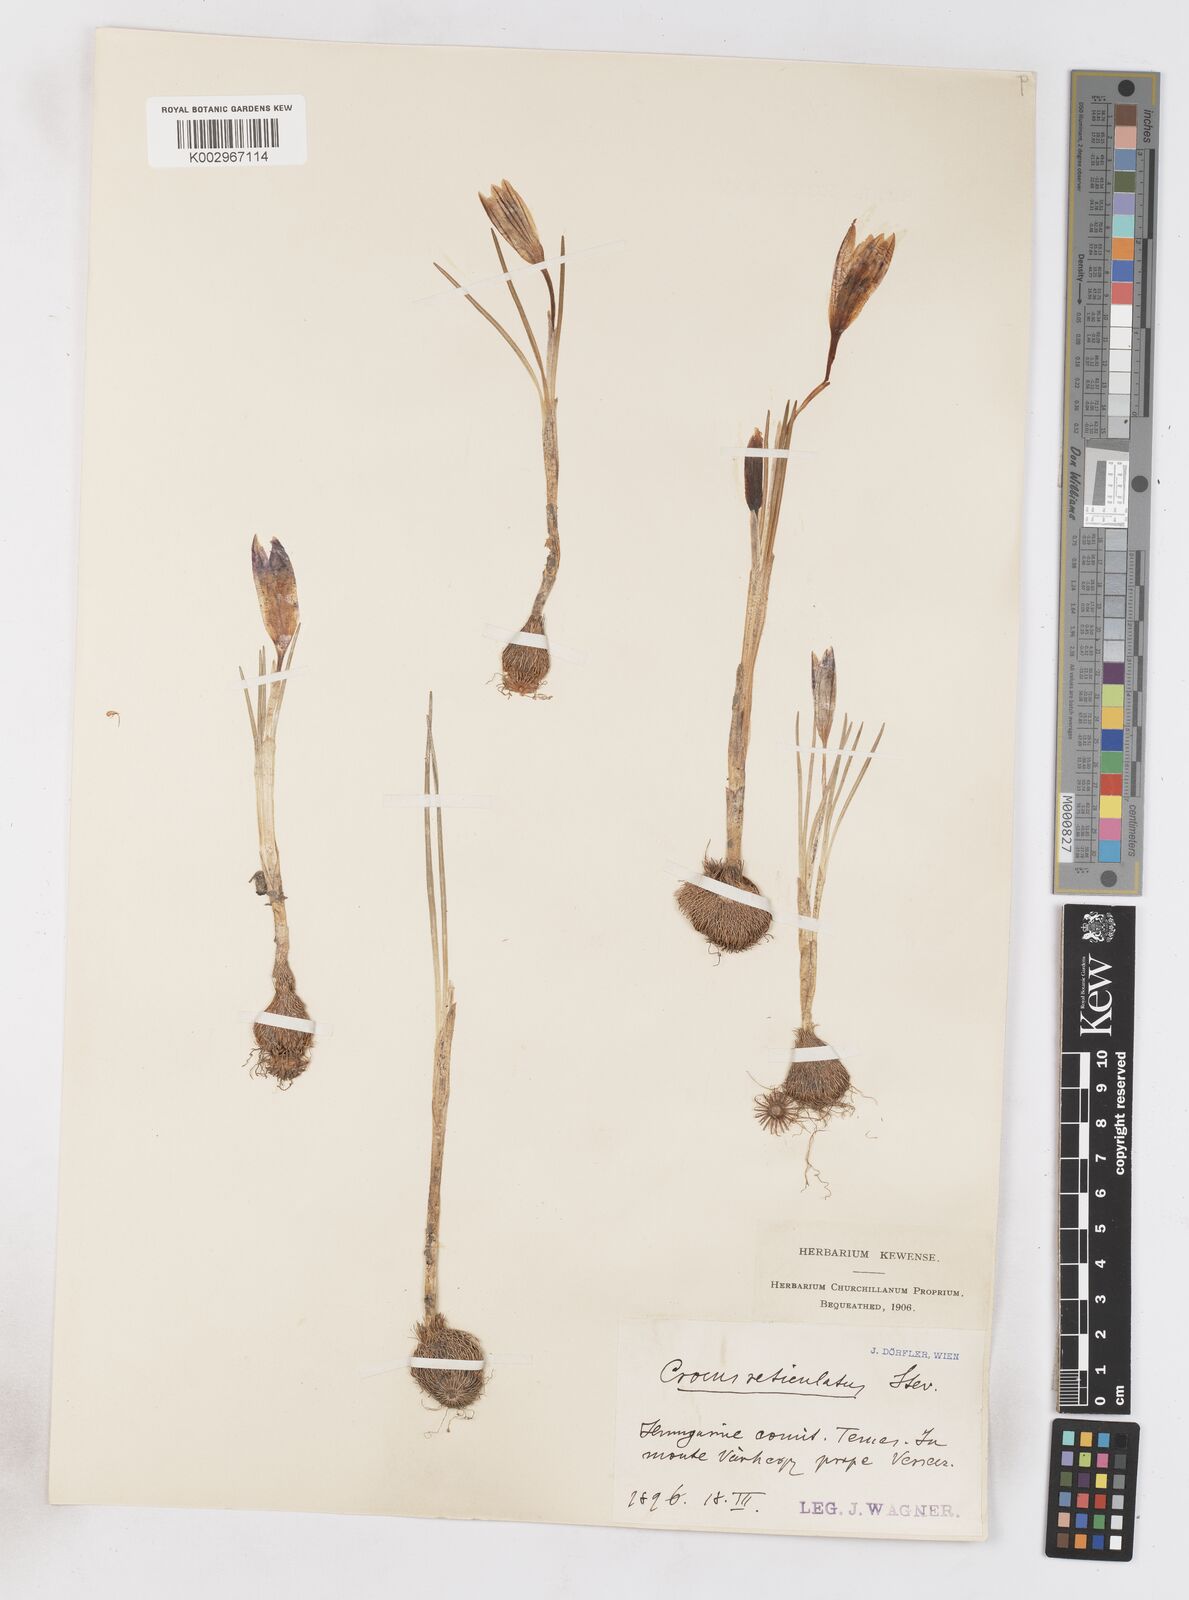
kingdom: Plantae
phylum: Tracheophyta
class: Liliopsida
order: Asparagales
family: Iridaceae
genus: Crocus
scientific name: Crocus reticulatus
